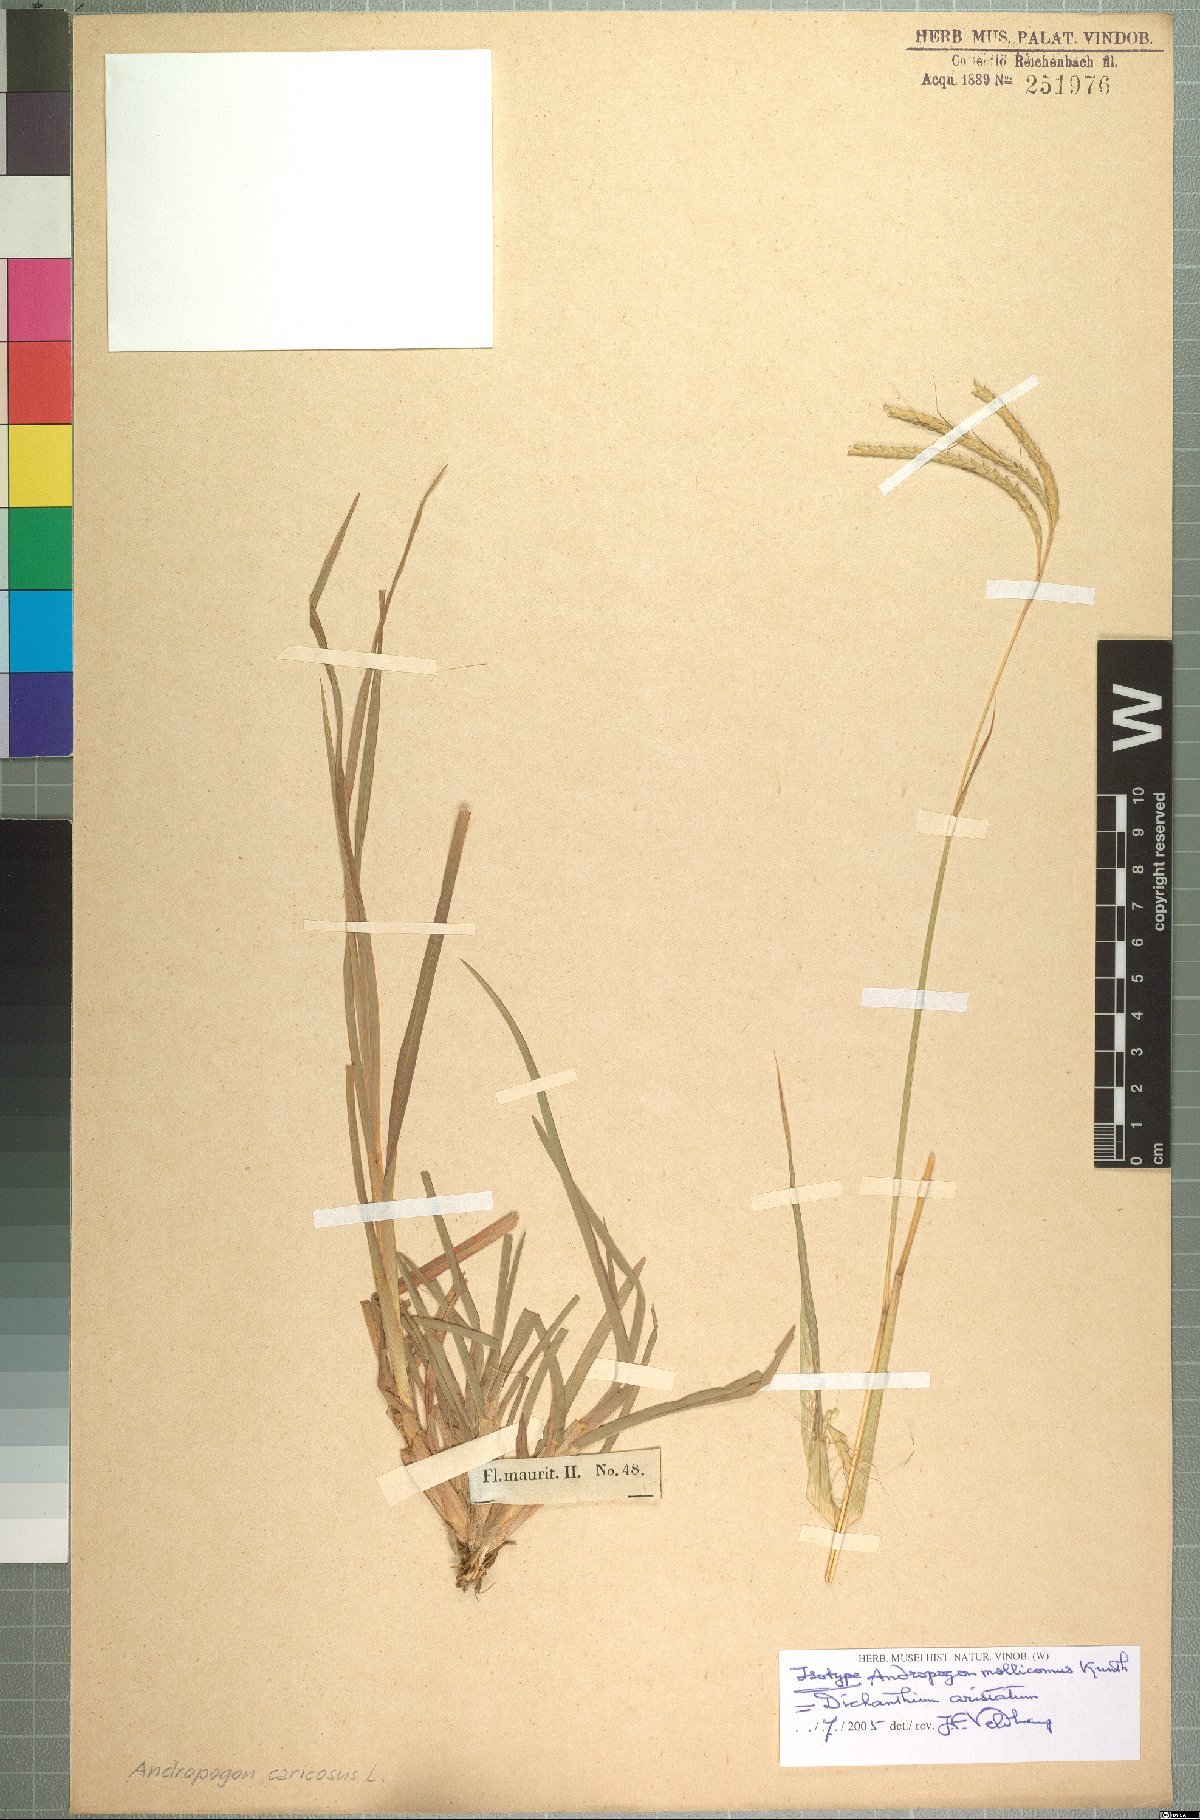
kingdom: Plantae
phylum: Tracheophyta
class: Liliopsida
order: Poales
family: Poaceae
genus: Dichanthium
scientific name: Dichanthium aristatum
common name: Angleton bluestem
